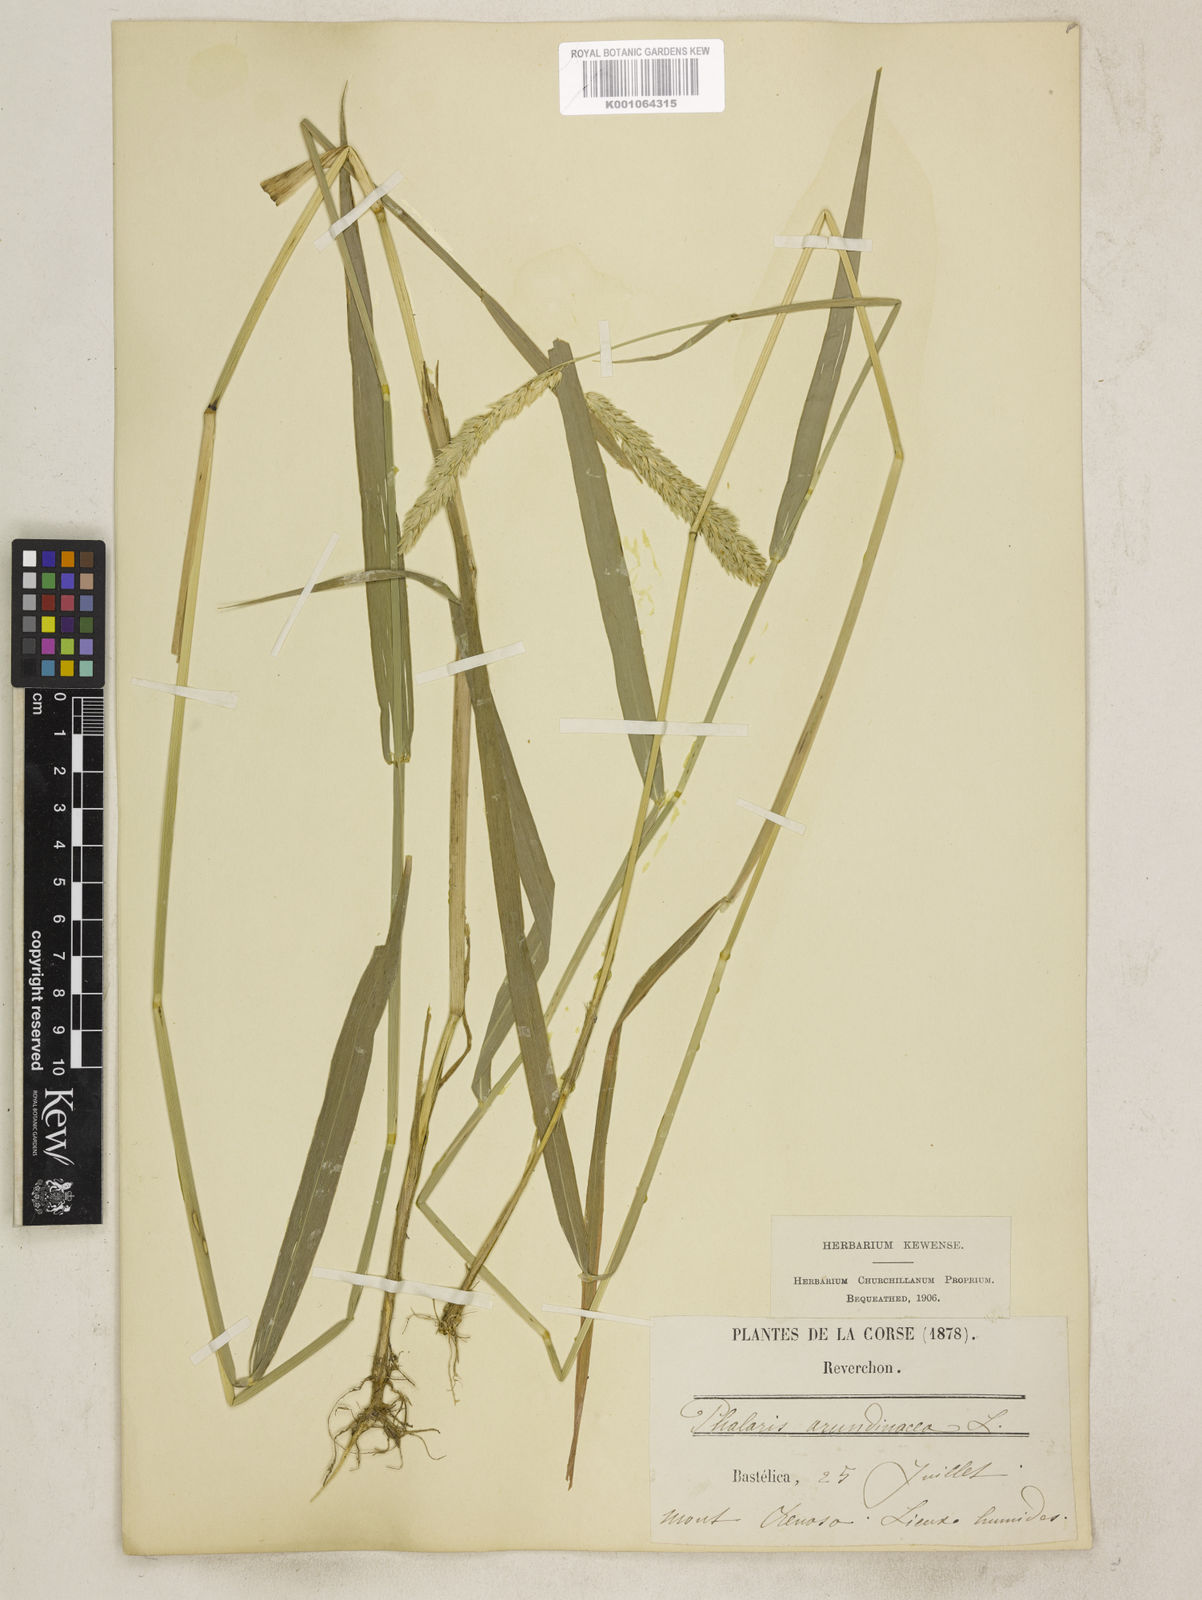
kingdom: Plantae
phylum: Tracheophyta
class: Liliopsida
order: Poales
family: Poaceae
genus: Phalaris
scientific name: Phalaris arundinacea
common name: Reed canary-grass
